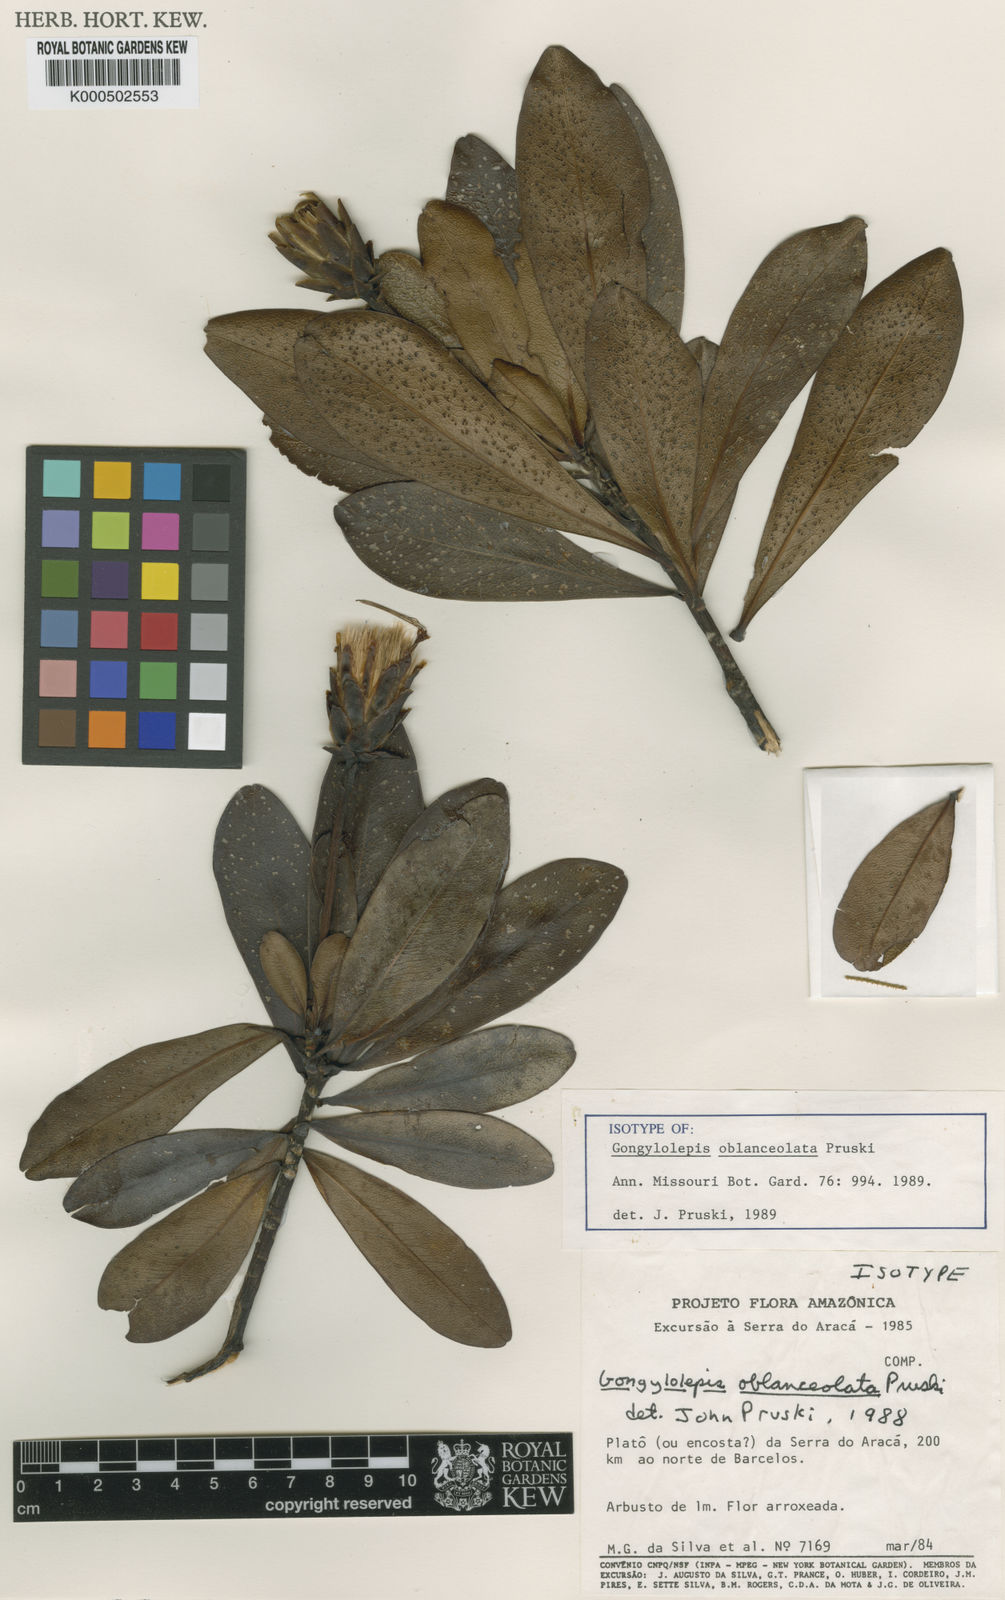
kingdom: Plantae
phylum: Tracheophyta
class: Magnoliopsida
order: Asterales
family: Asteraceae
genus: Gongylolepis
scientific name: Gongylolepis oblanceolata
